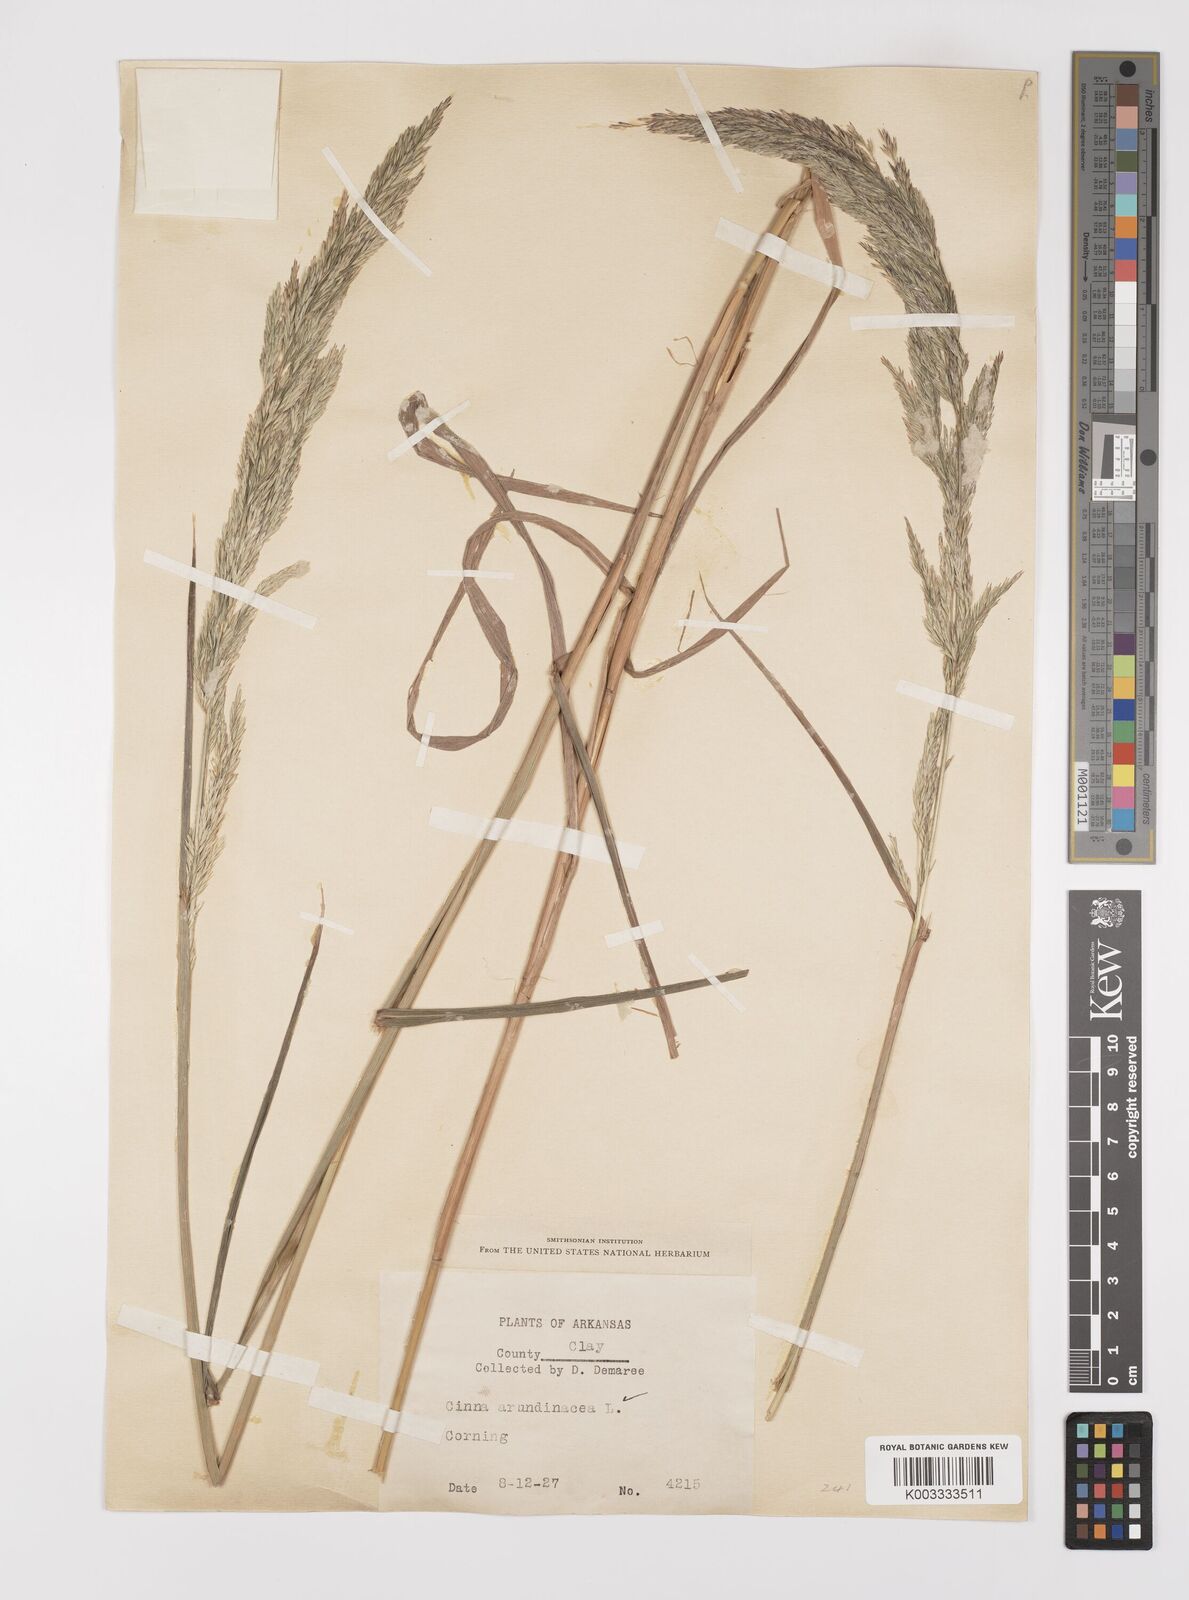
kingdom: Plantae
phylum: Tracheophyta
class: Liliopsida
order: Poales
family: Poaceae
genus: Cinna
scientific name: Cinna
